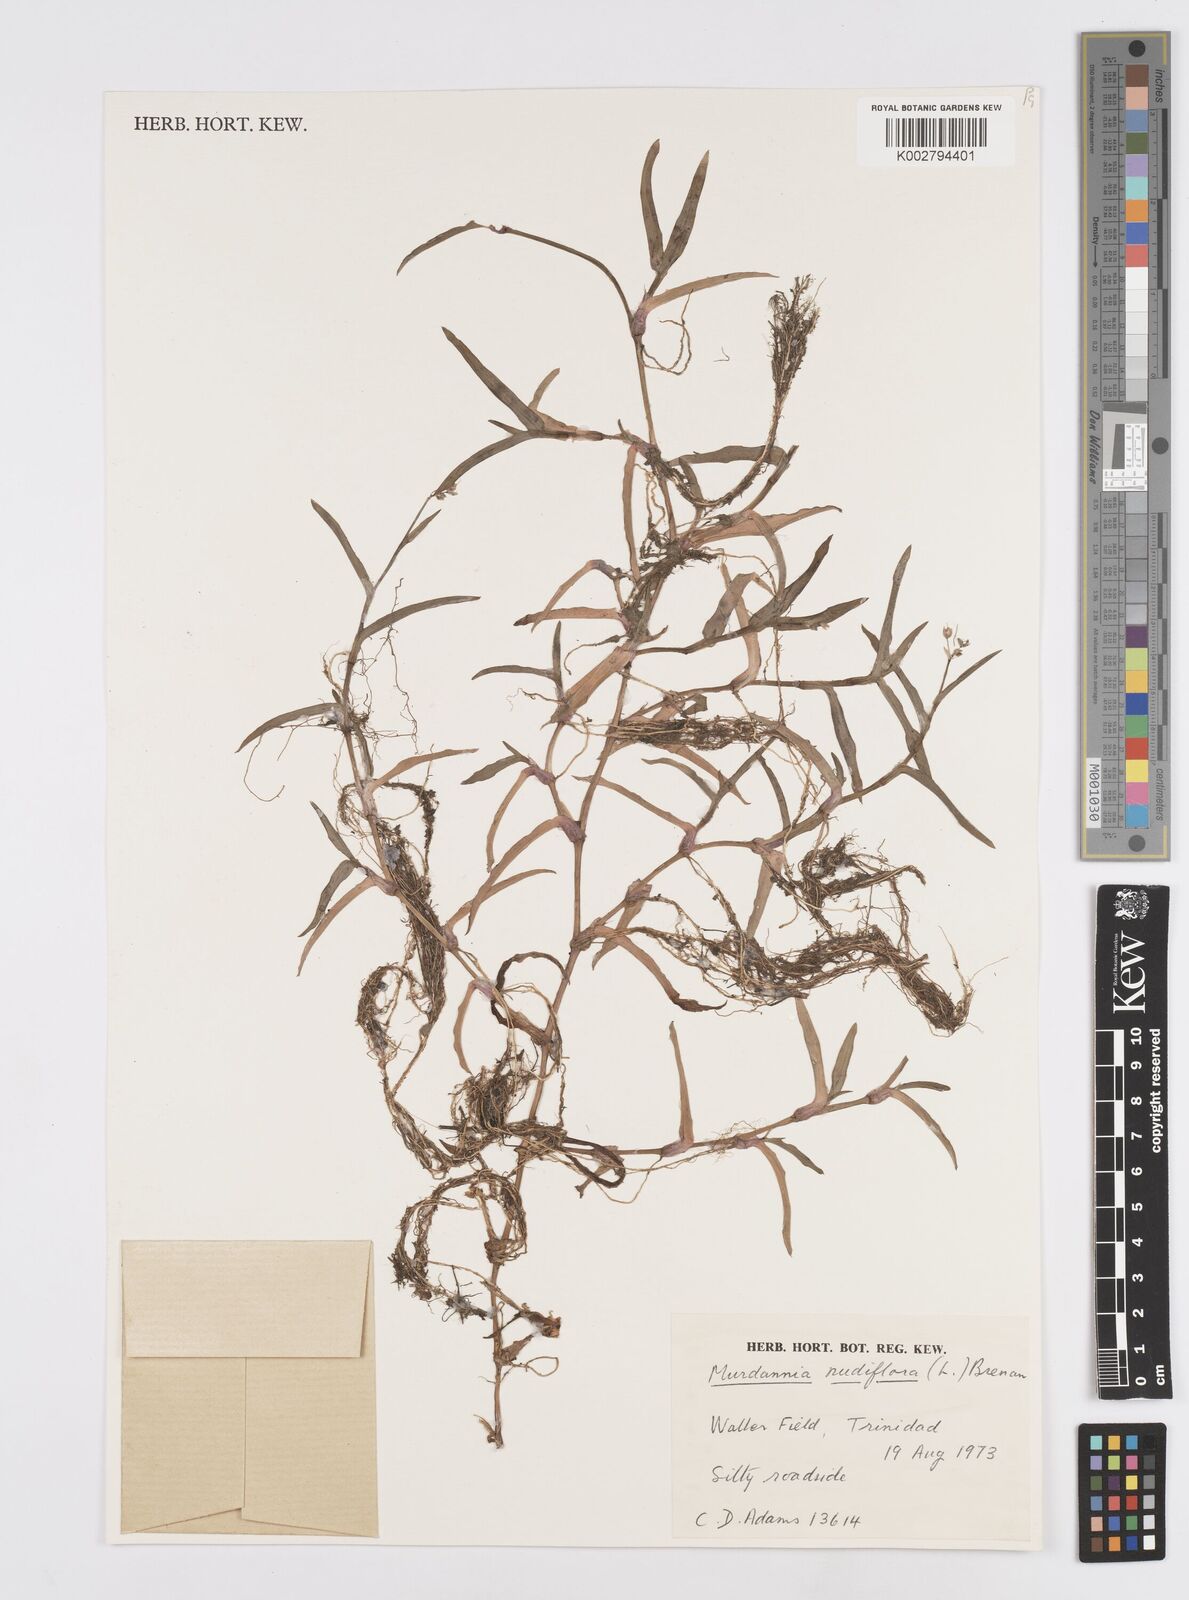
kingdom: Plantae
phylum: Tracheophyta
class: Liliopsida
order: Commelinales
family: Commelinaceae
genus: Murdannia
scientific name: Murdannia nudiflora
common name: Nakedstem dewflower
